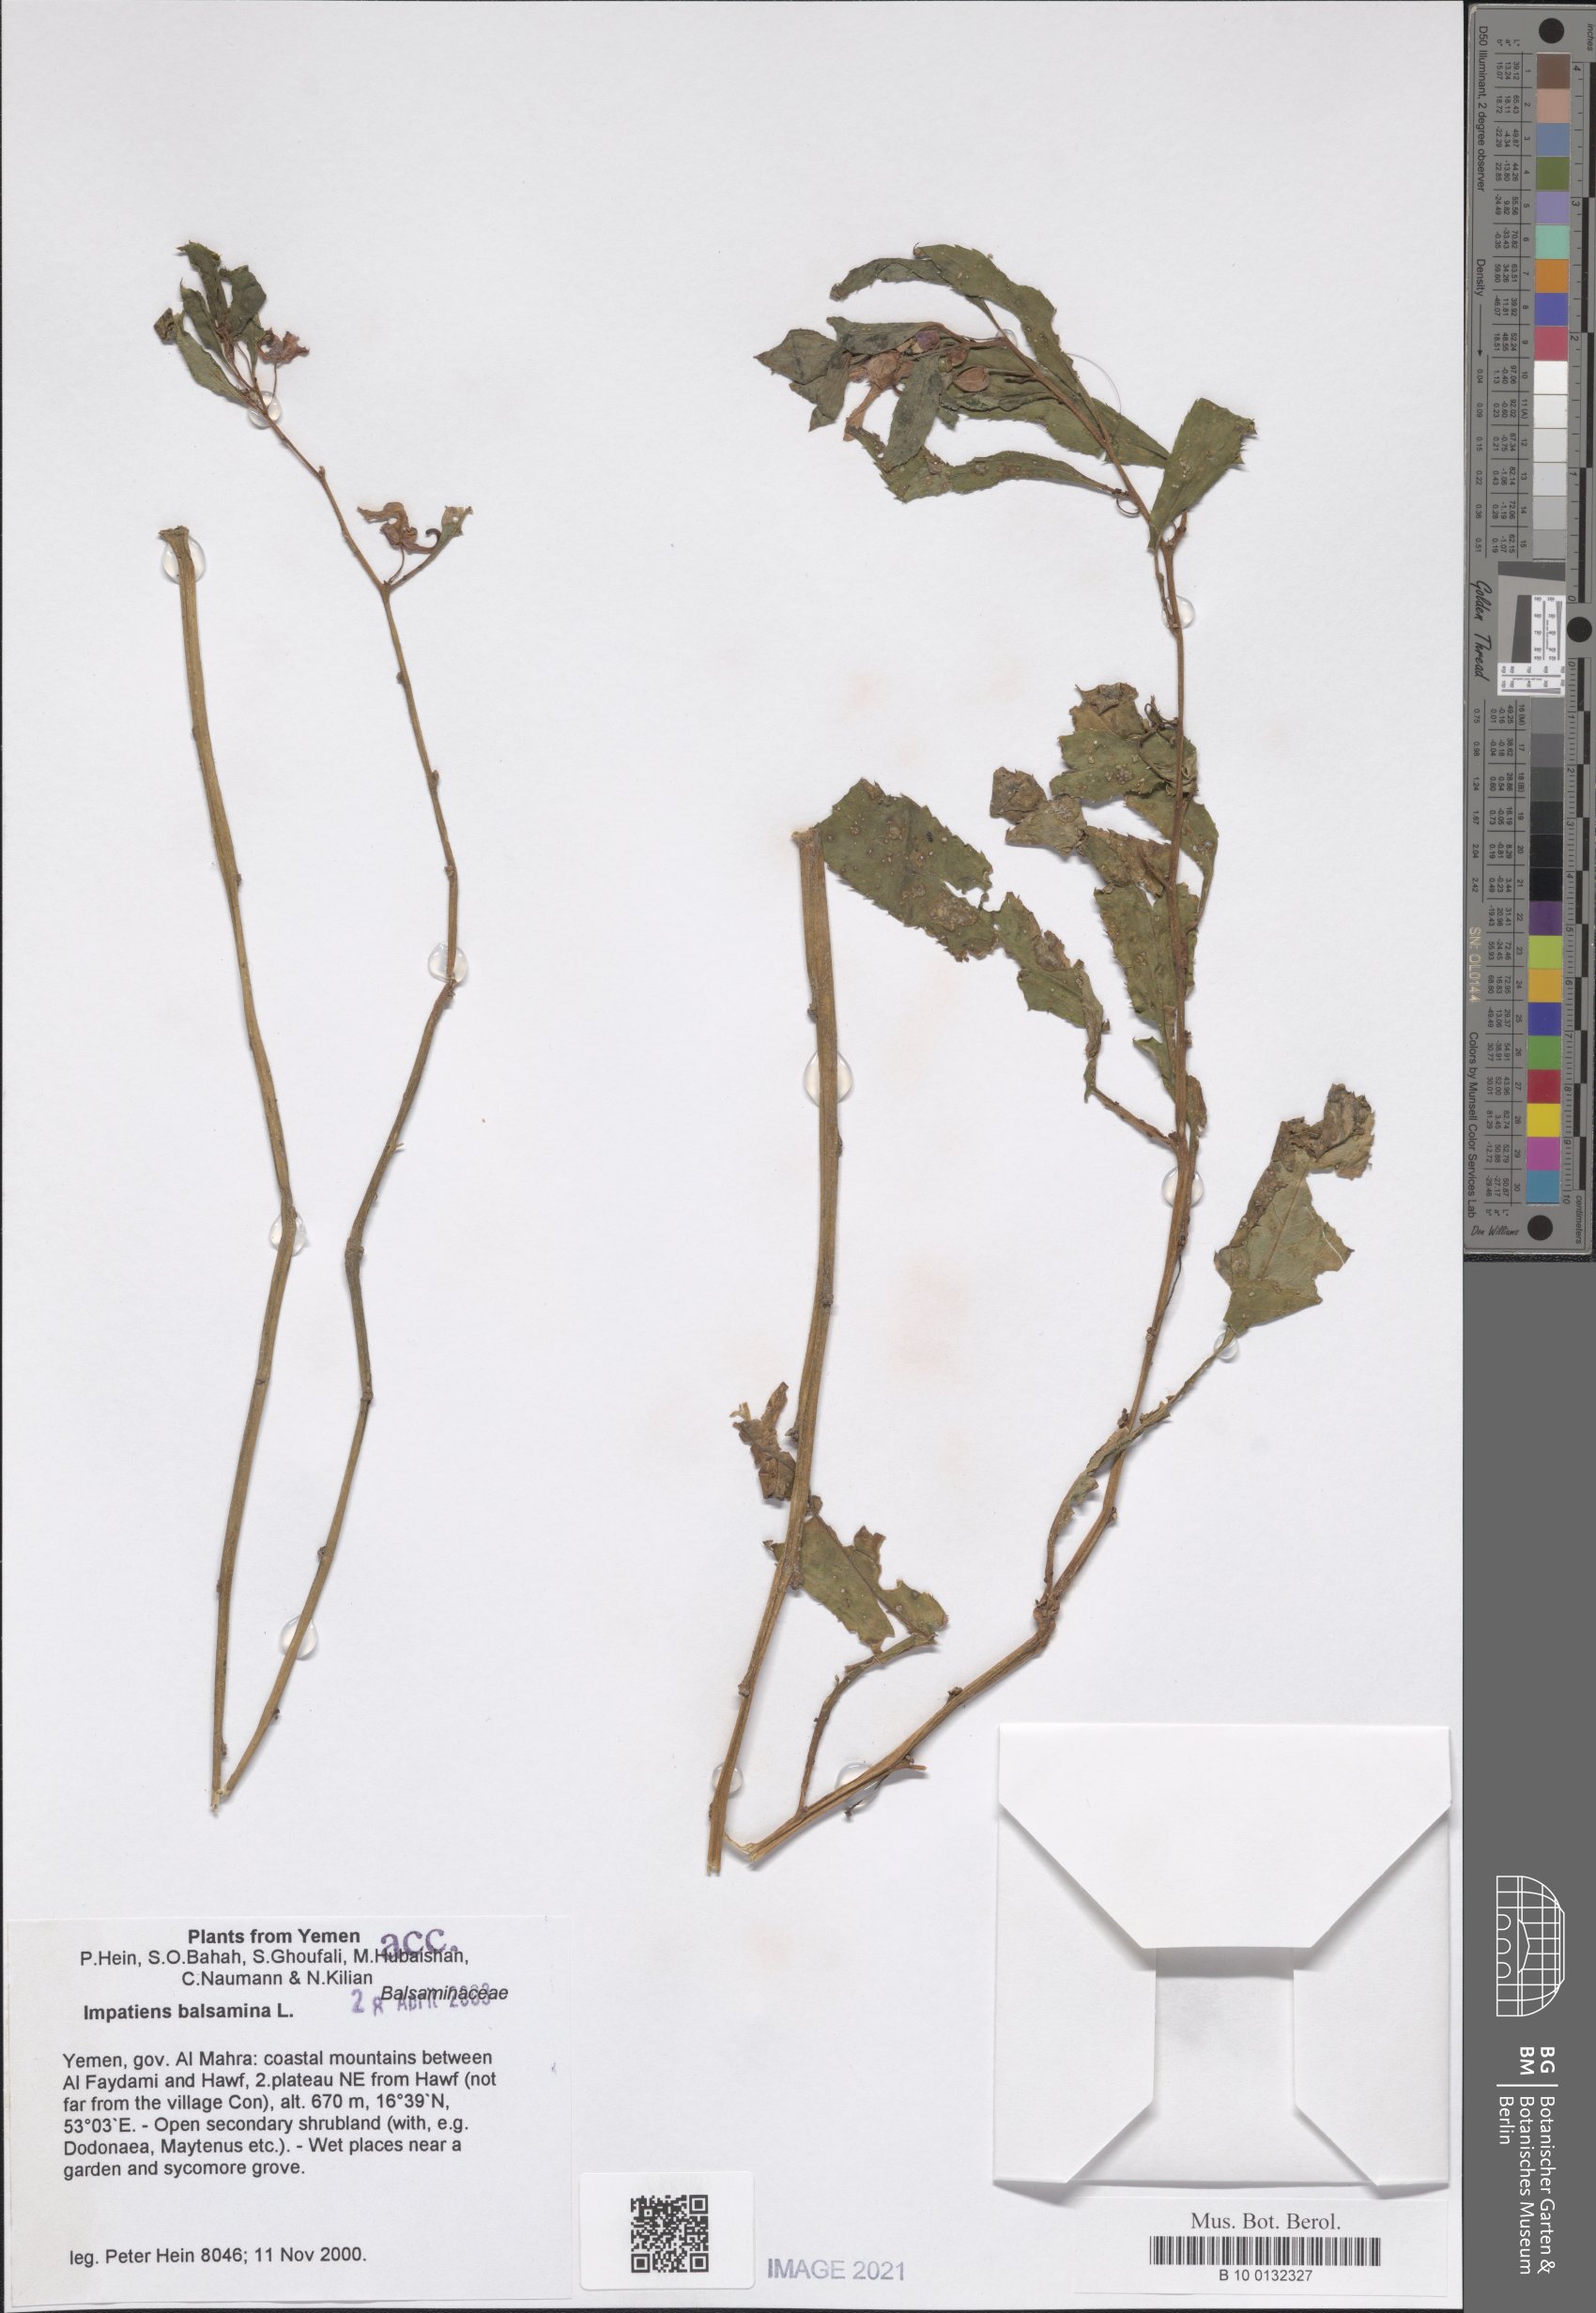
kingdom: Plantae
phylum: Tracheophyta
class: Magnoliopsida
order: Ericales
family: Balsaminaceae
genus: Impatiens
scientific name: Impatiens balsamina
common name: Balsam
